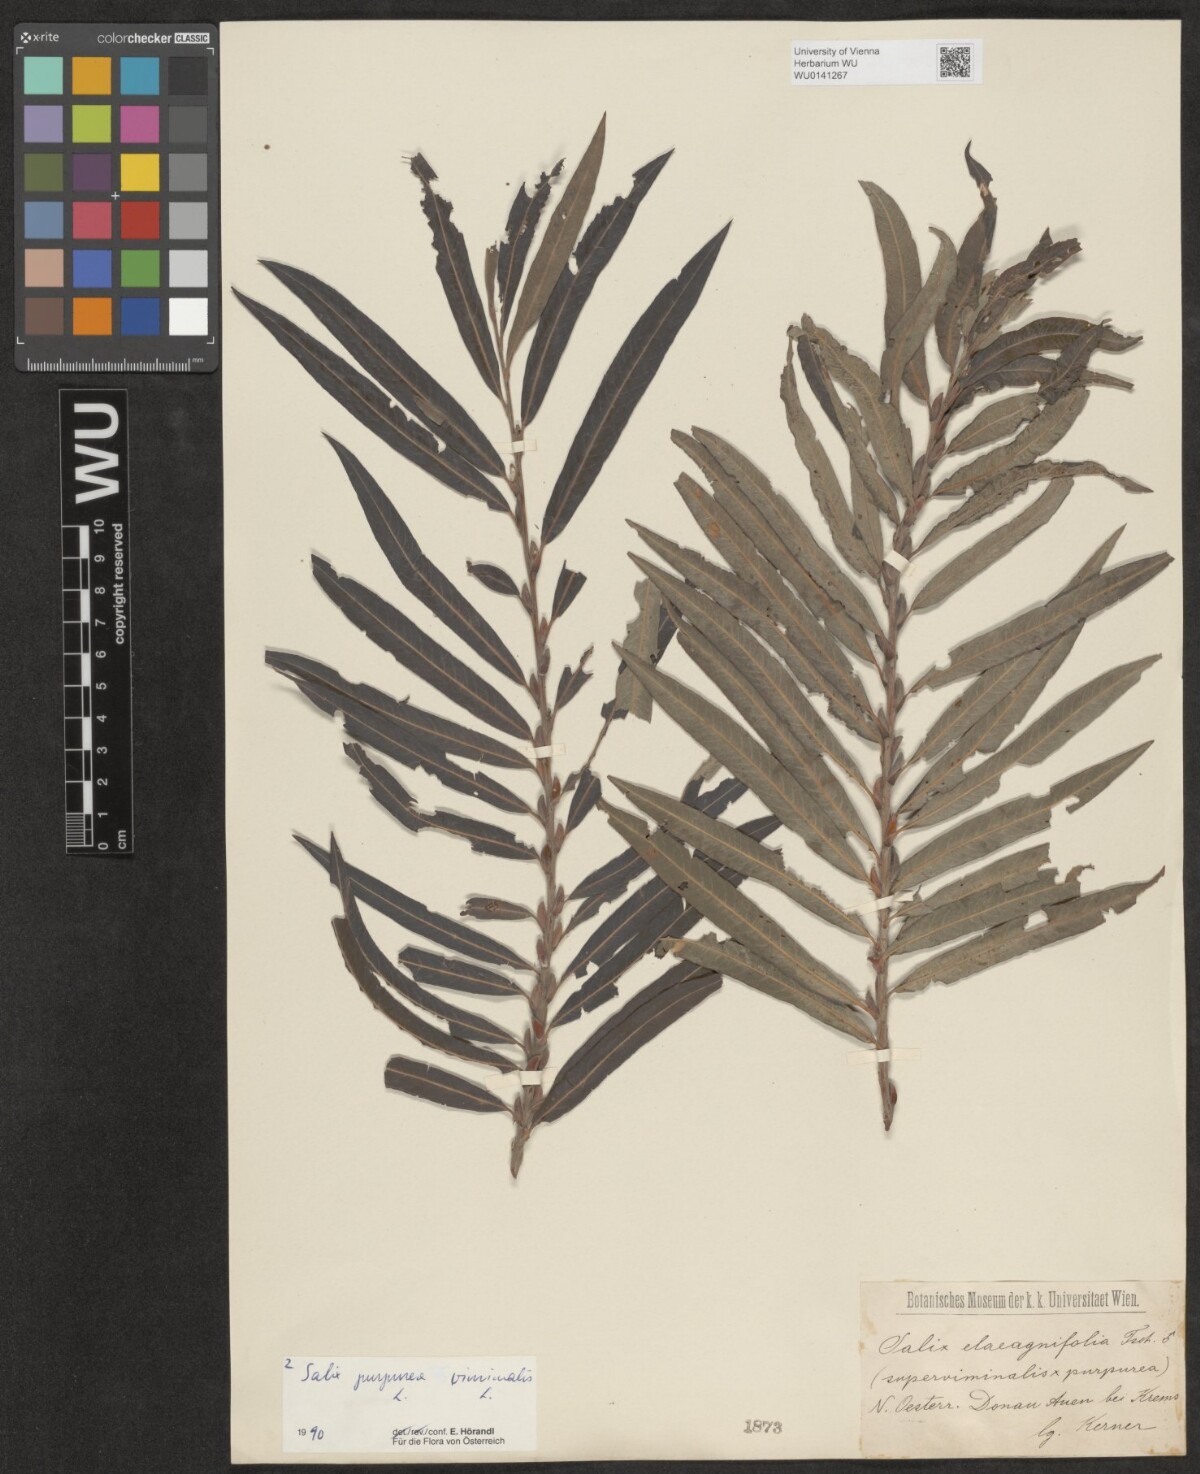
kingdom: Plantae
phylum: Tracheophyta
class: Magnoliopsida
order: Malpighiales
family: Salicaceae
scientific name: Salicaceae
